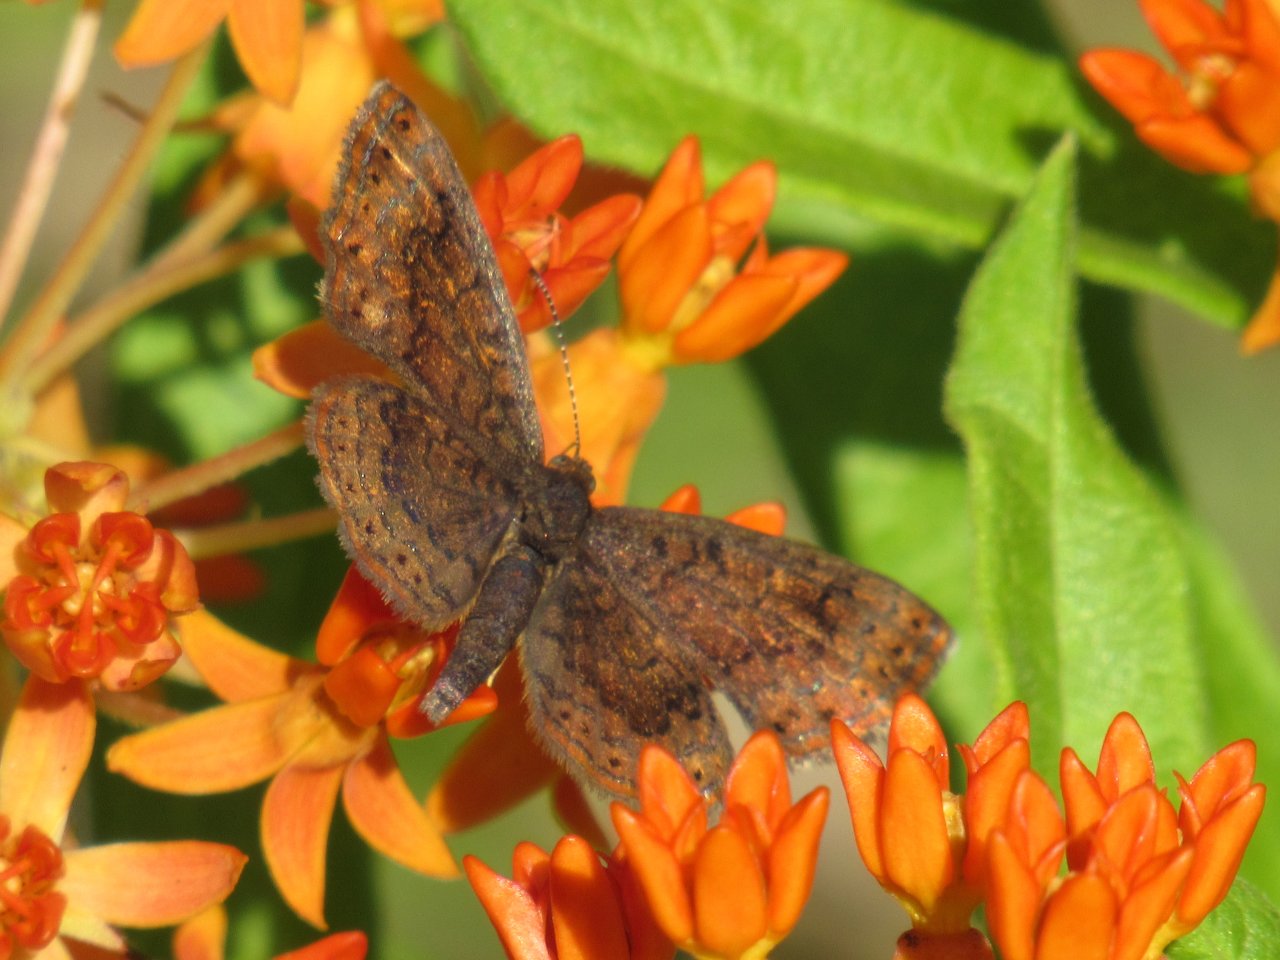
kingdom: Animalia
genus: Calephelis
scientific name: Calephelis borealis
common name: Northern Metalmark
